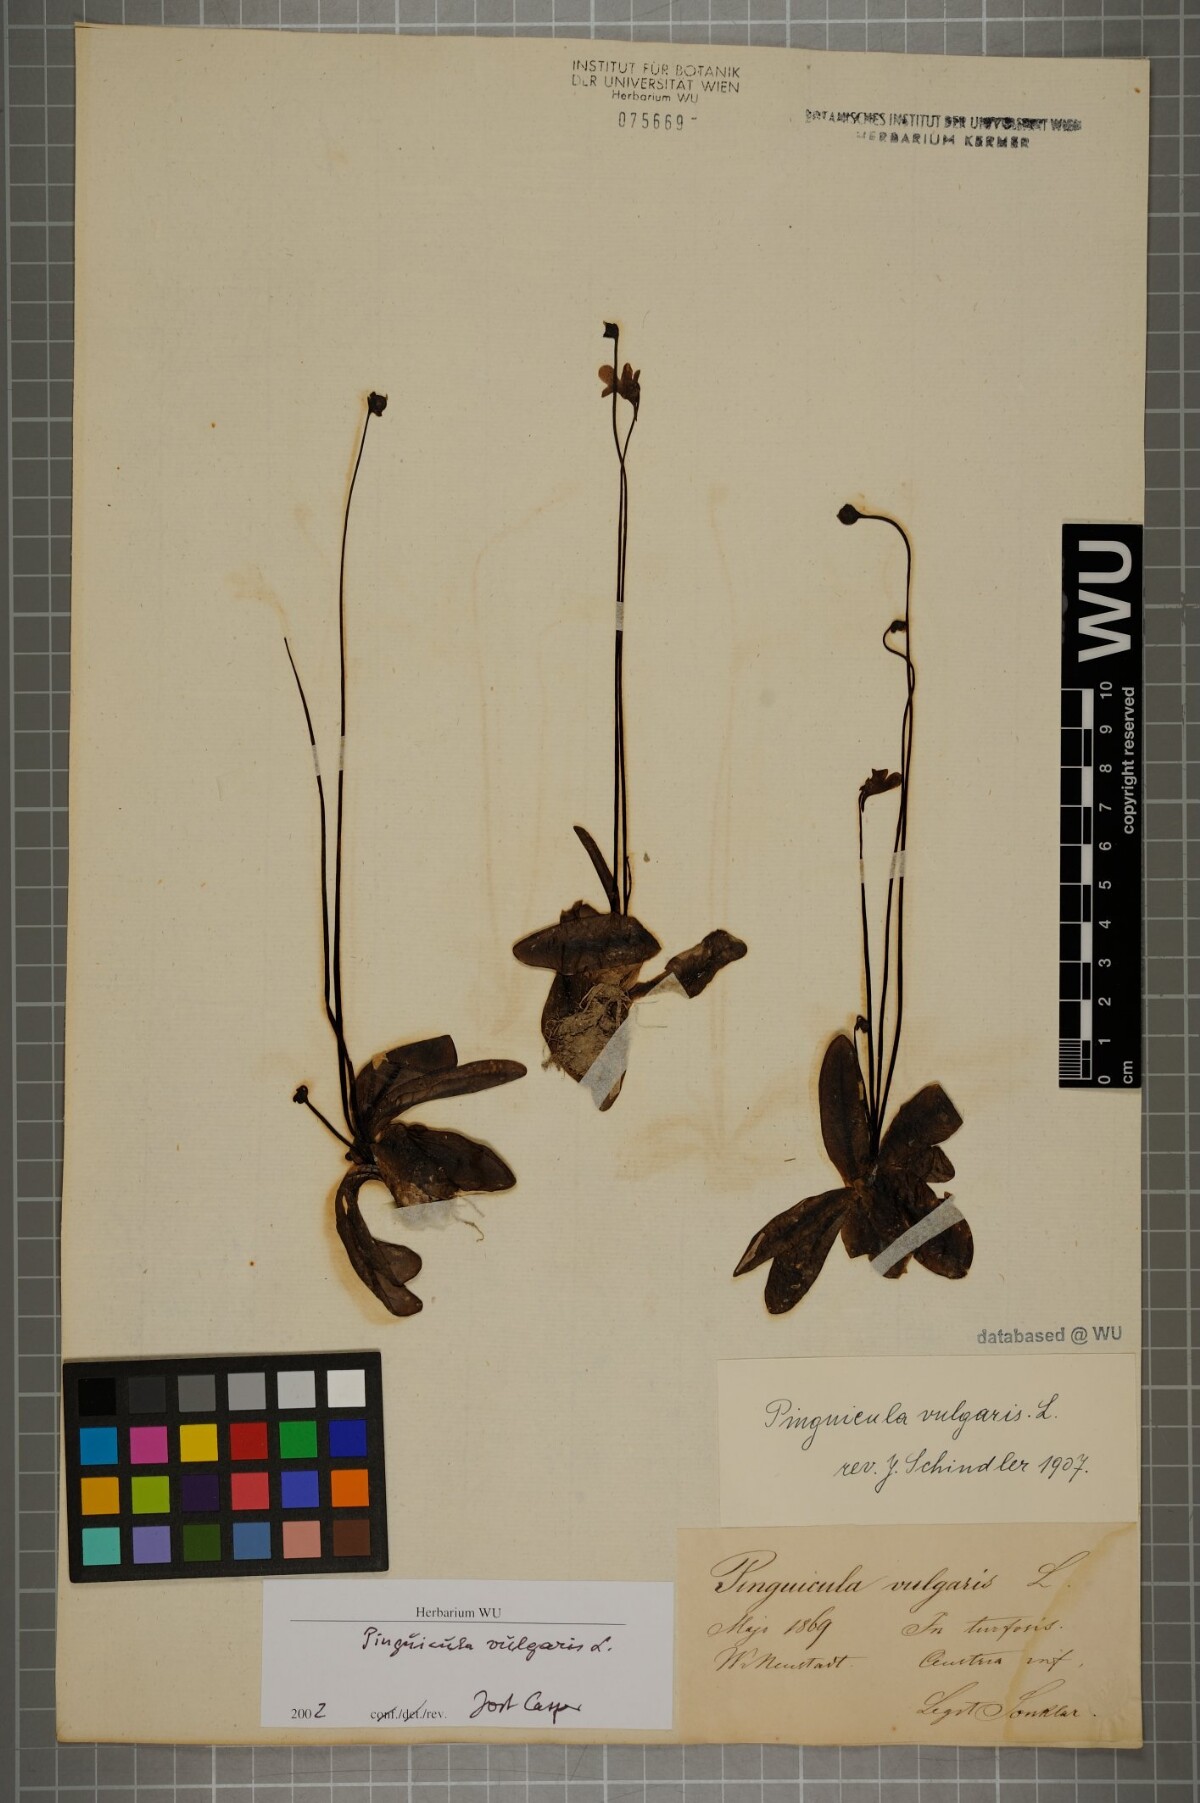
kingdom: Plantae
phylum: Tracheophyta
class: Magnoliopsida
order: Lamiales
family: Lentibulariaceae
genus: Pinguicula
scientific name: Pinguicula vulgaris
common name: Common butterwort
